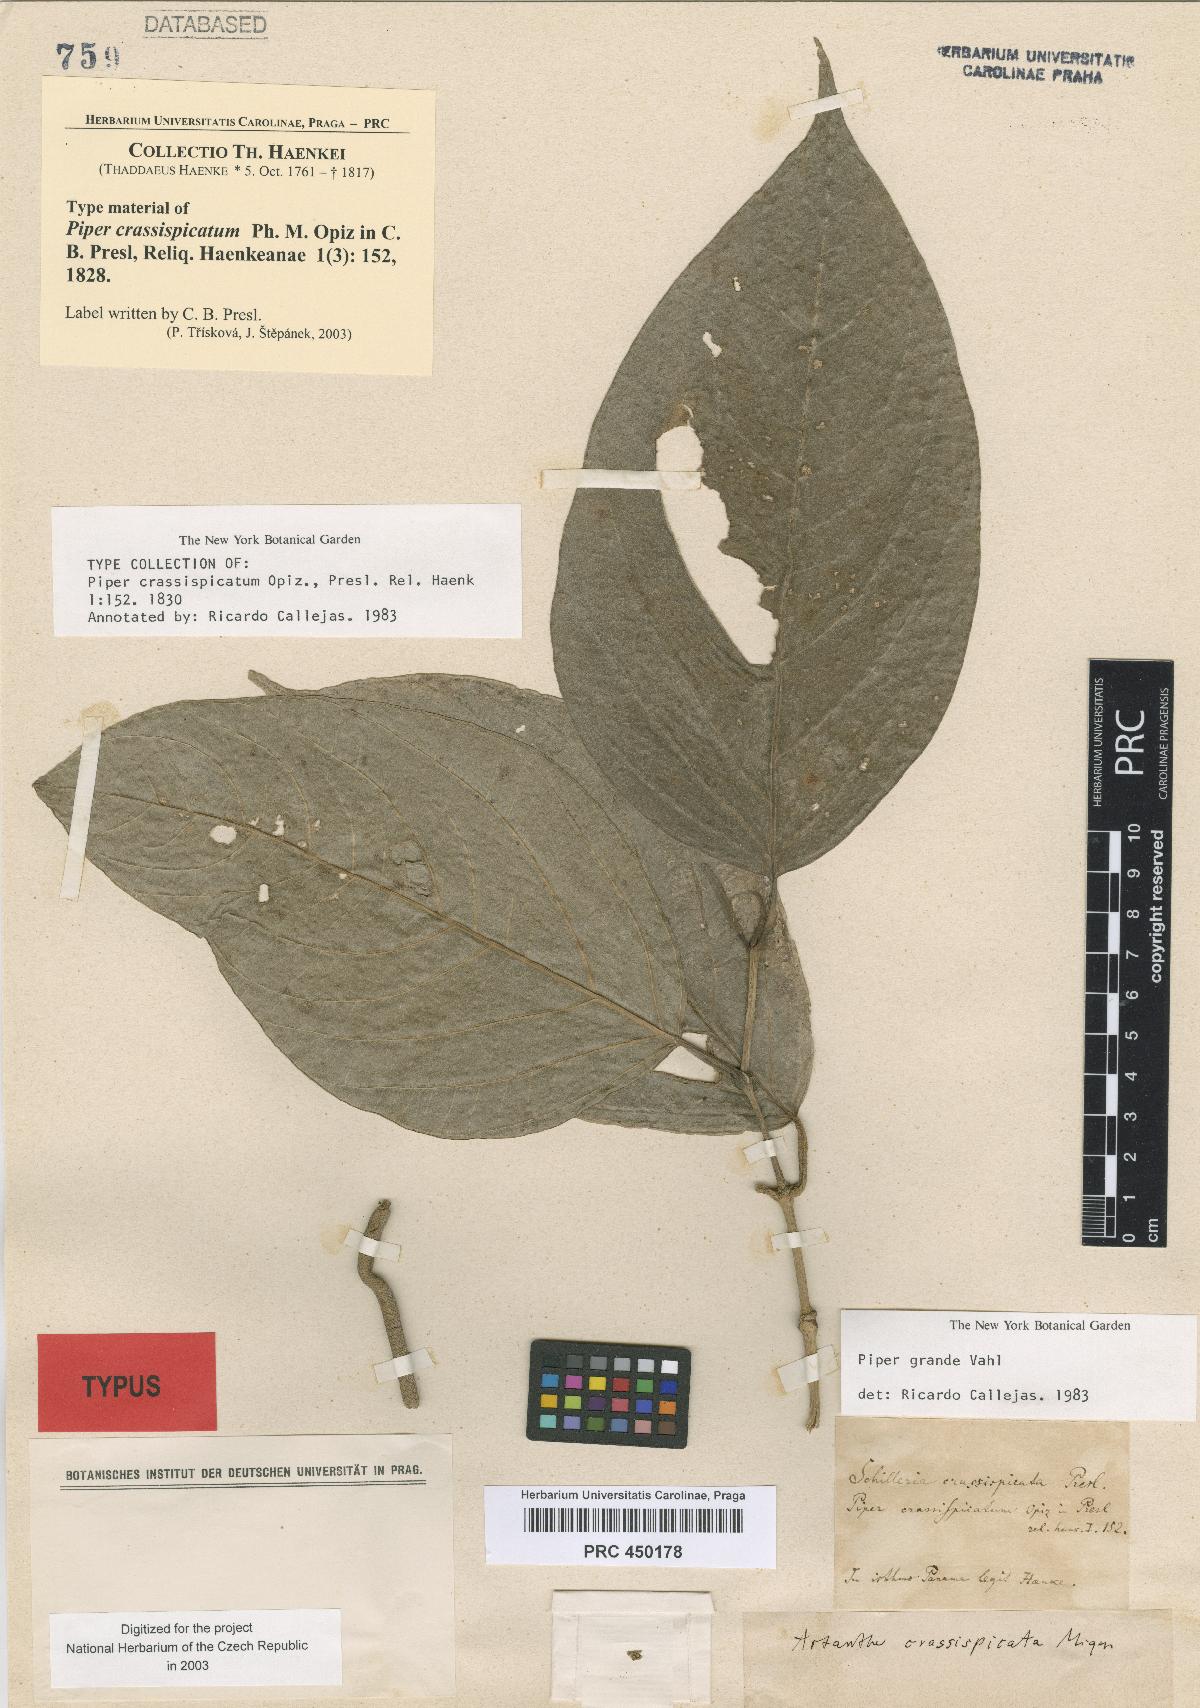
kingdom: Plantae
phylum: Tracheophyta
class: Magnoliopsida
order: Piperales
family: Piperaceae
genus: Piper
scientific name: Piper grande
